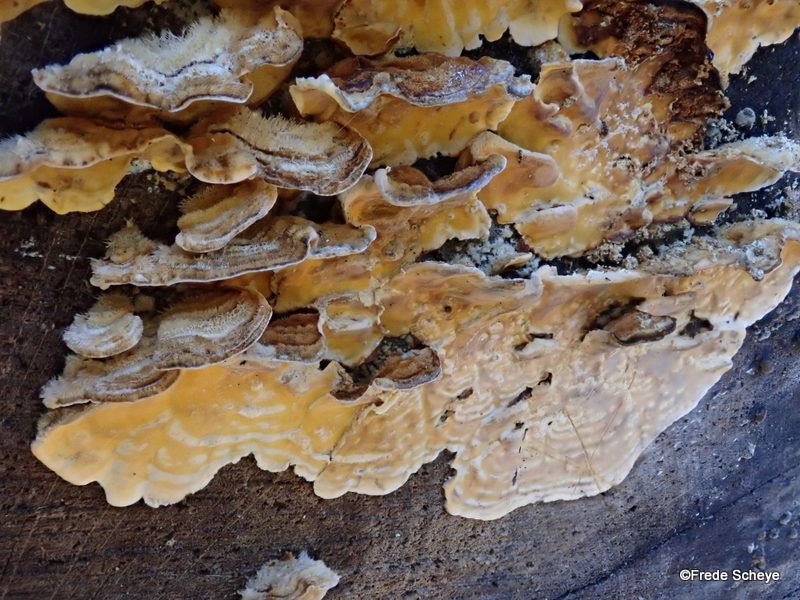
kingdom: Fungi
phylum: Basidiomycota
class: Agaricomycetes
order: Russulales
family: Stereaceae
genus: Stereum
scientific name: Stereum hirsutum
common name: håret lædersvamp
